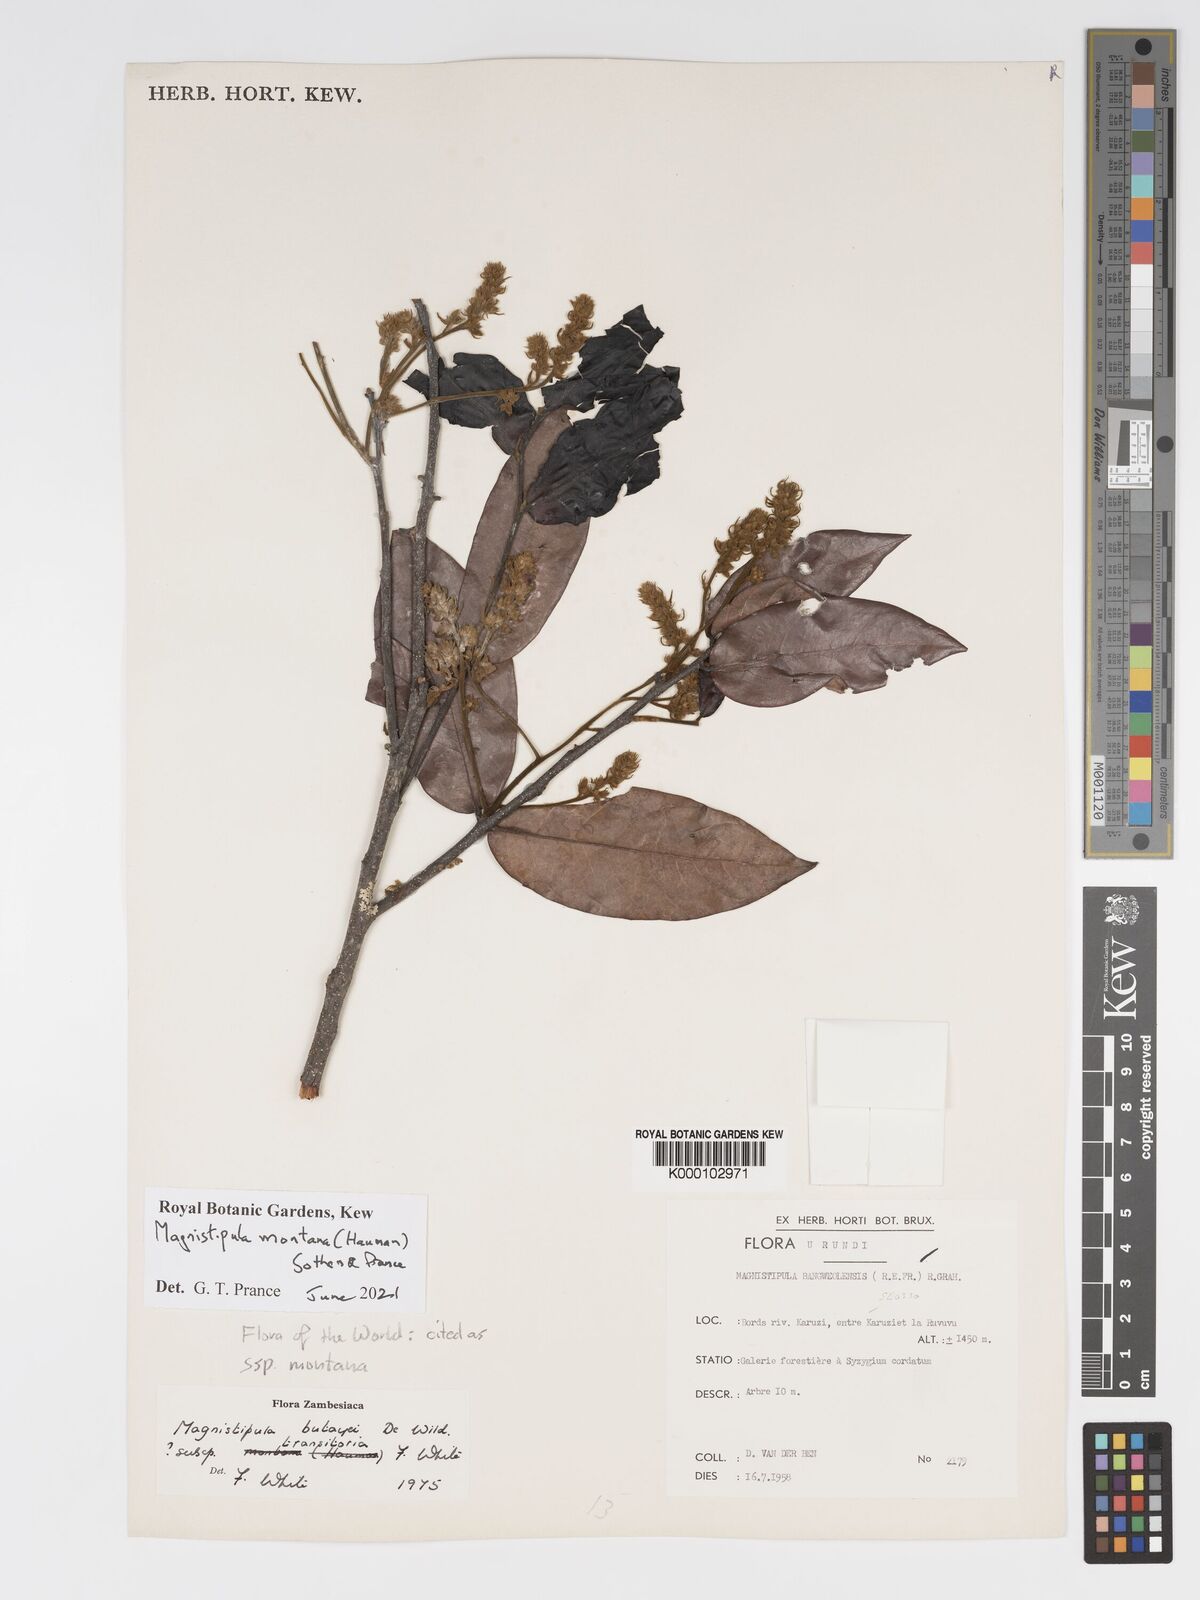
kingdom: Plantae
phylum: Tracheophyta
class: Magnoliopsida
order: Malpighiales
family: Chrysobalanaceae
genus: Magnistipula
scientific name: Magnistipula butayei
